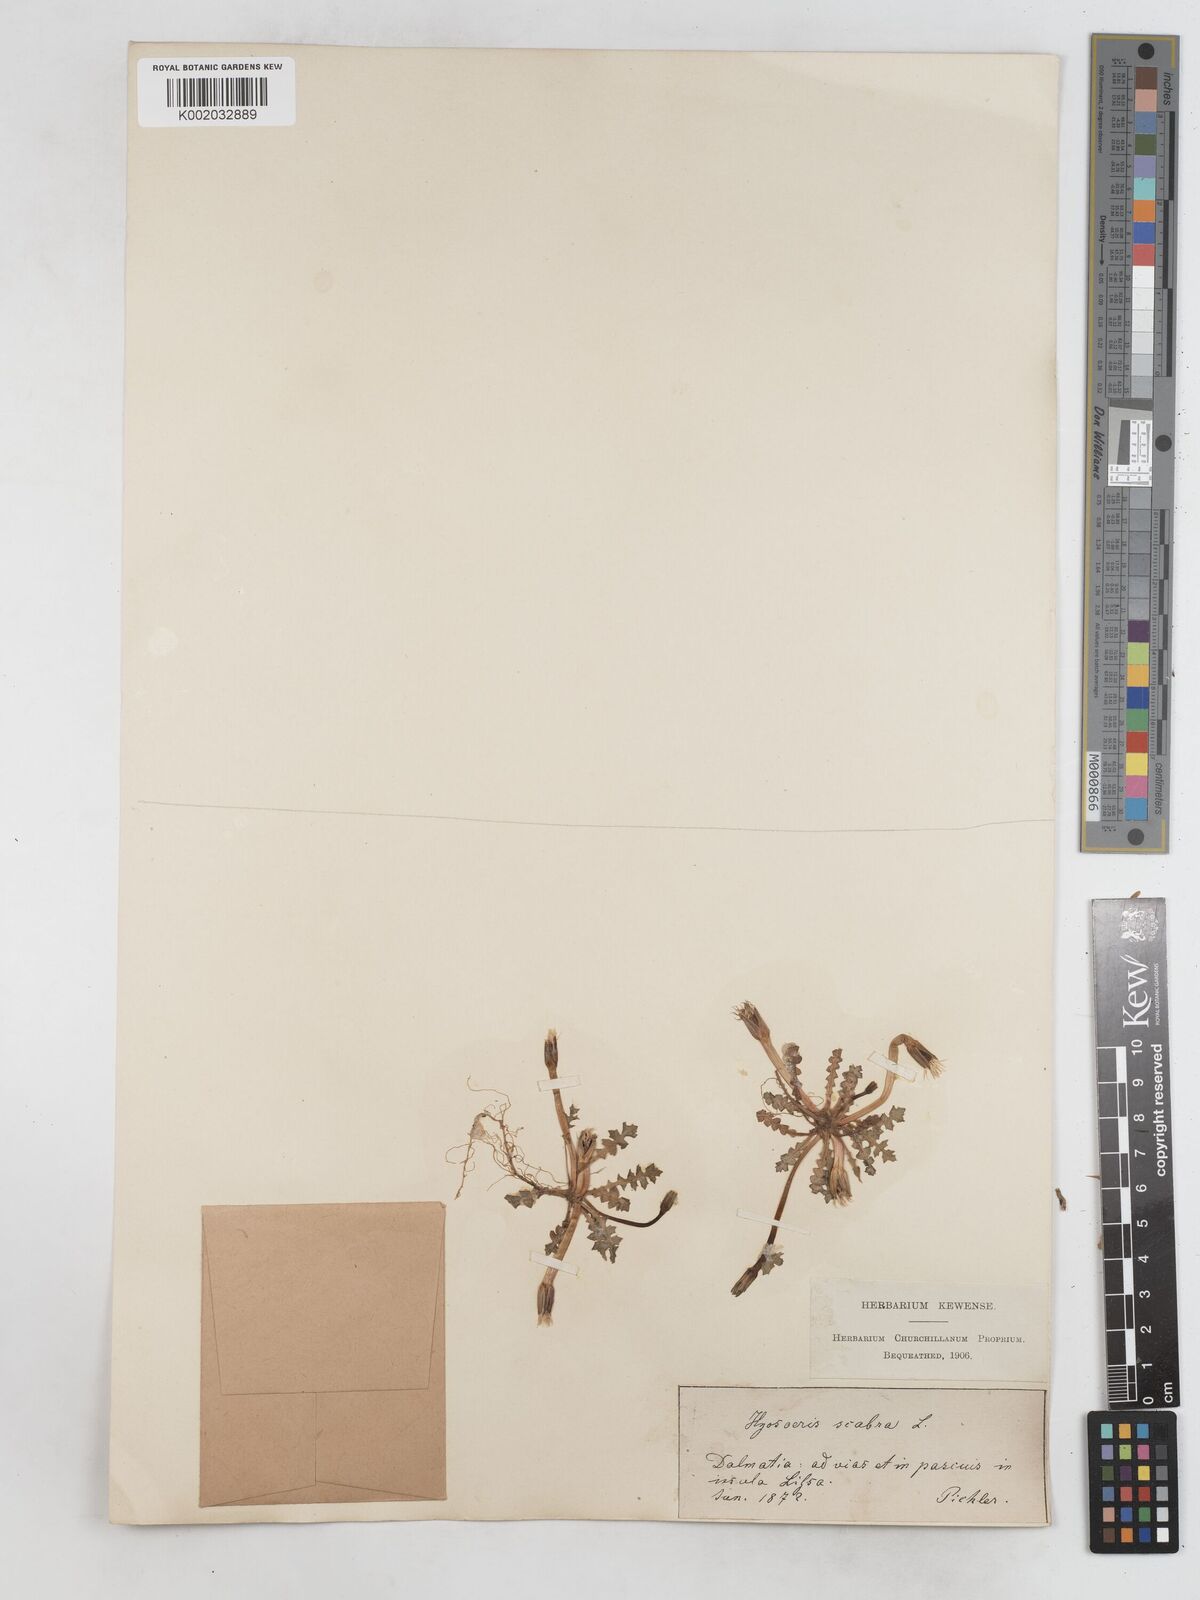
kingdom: Plantae
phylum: Tracheophyta
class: Magnoliopsida
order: Asterales
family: Asteraceae
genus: Hyoseris
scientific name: Hyoseris scabra
